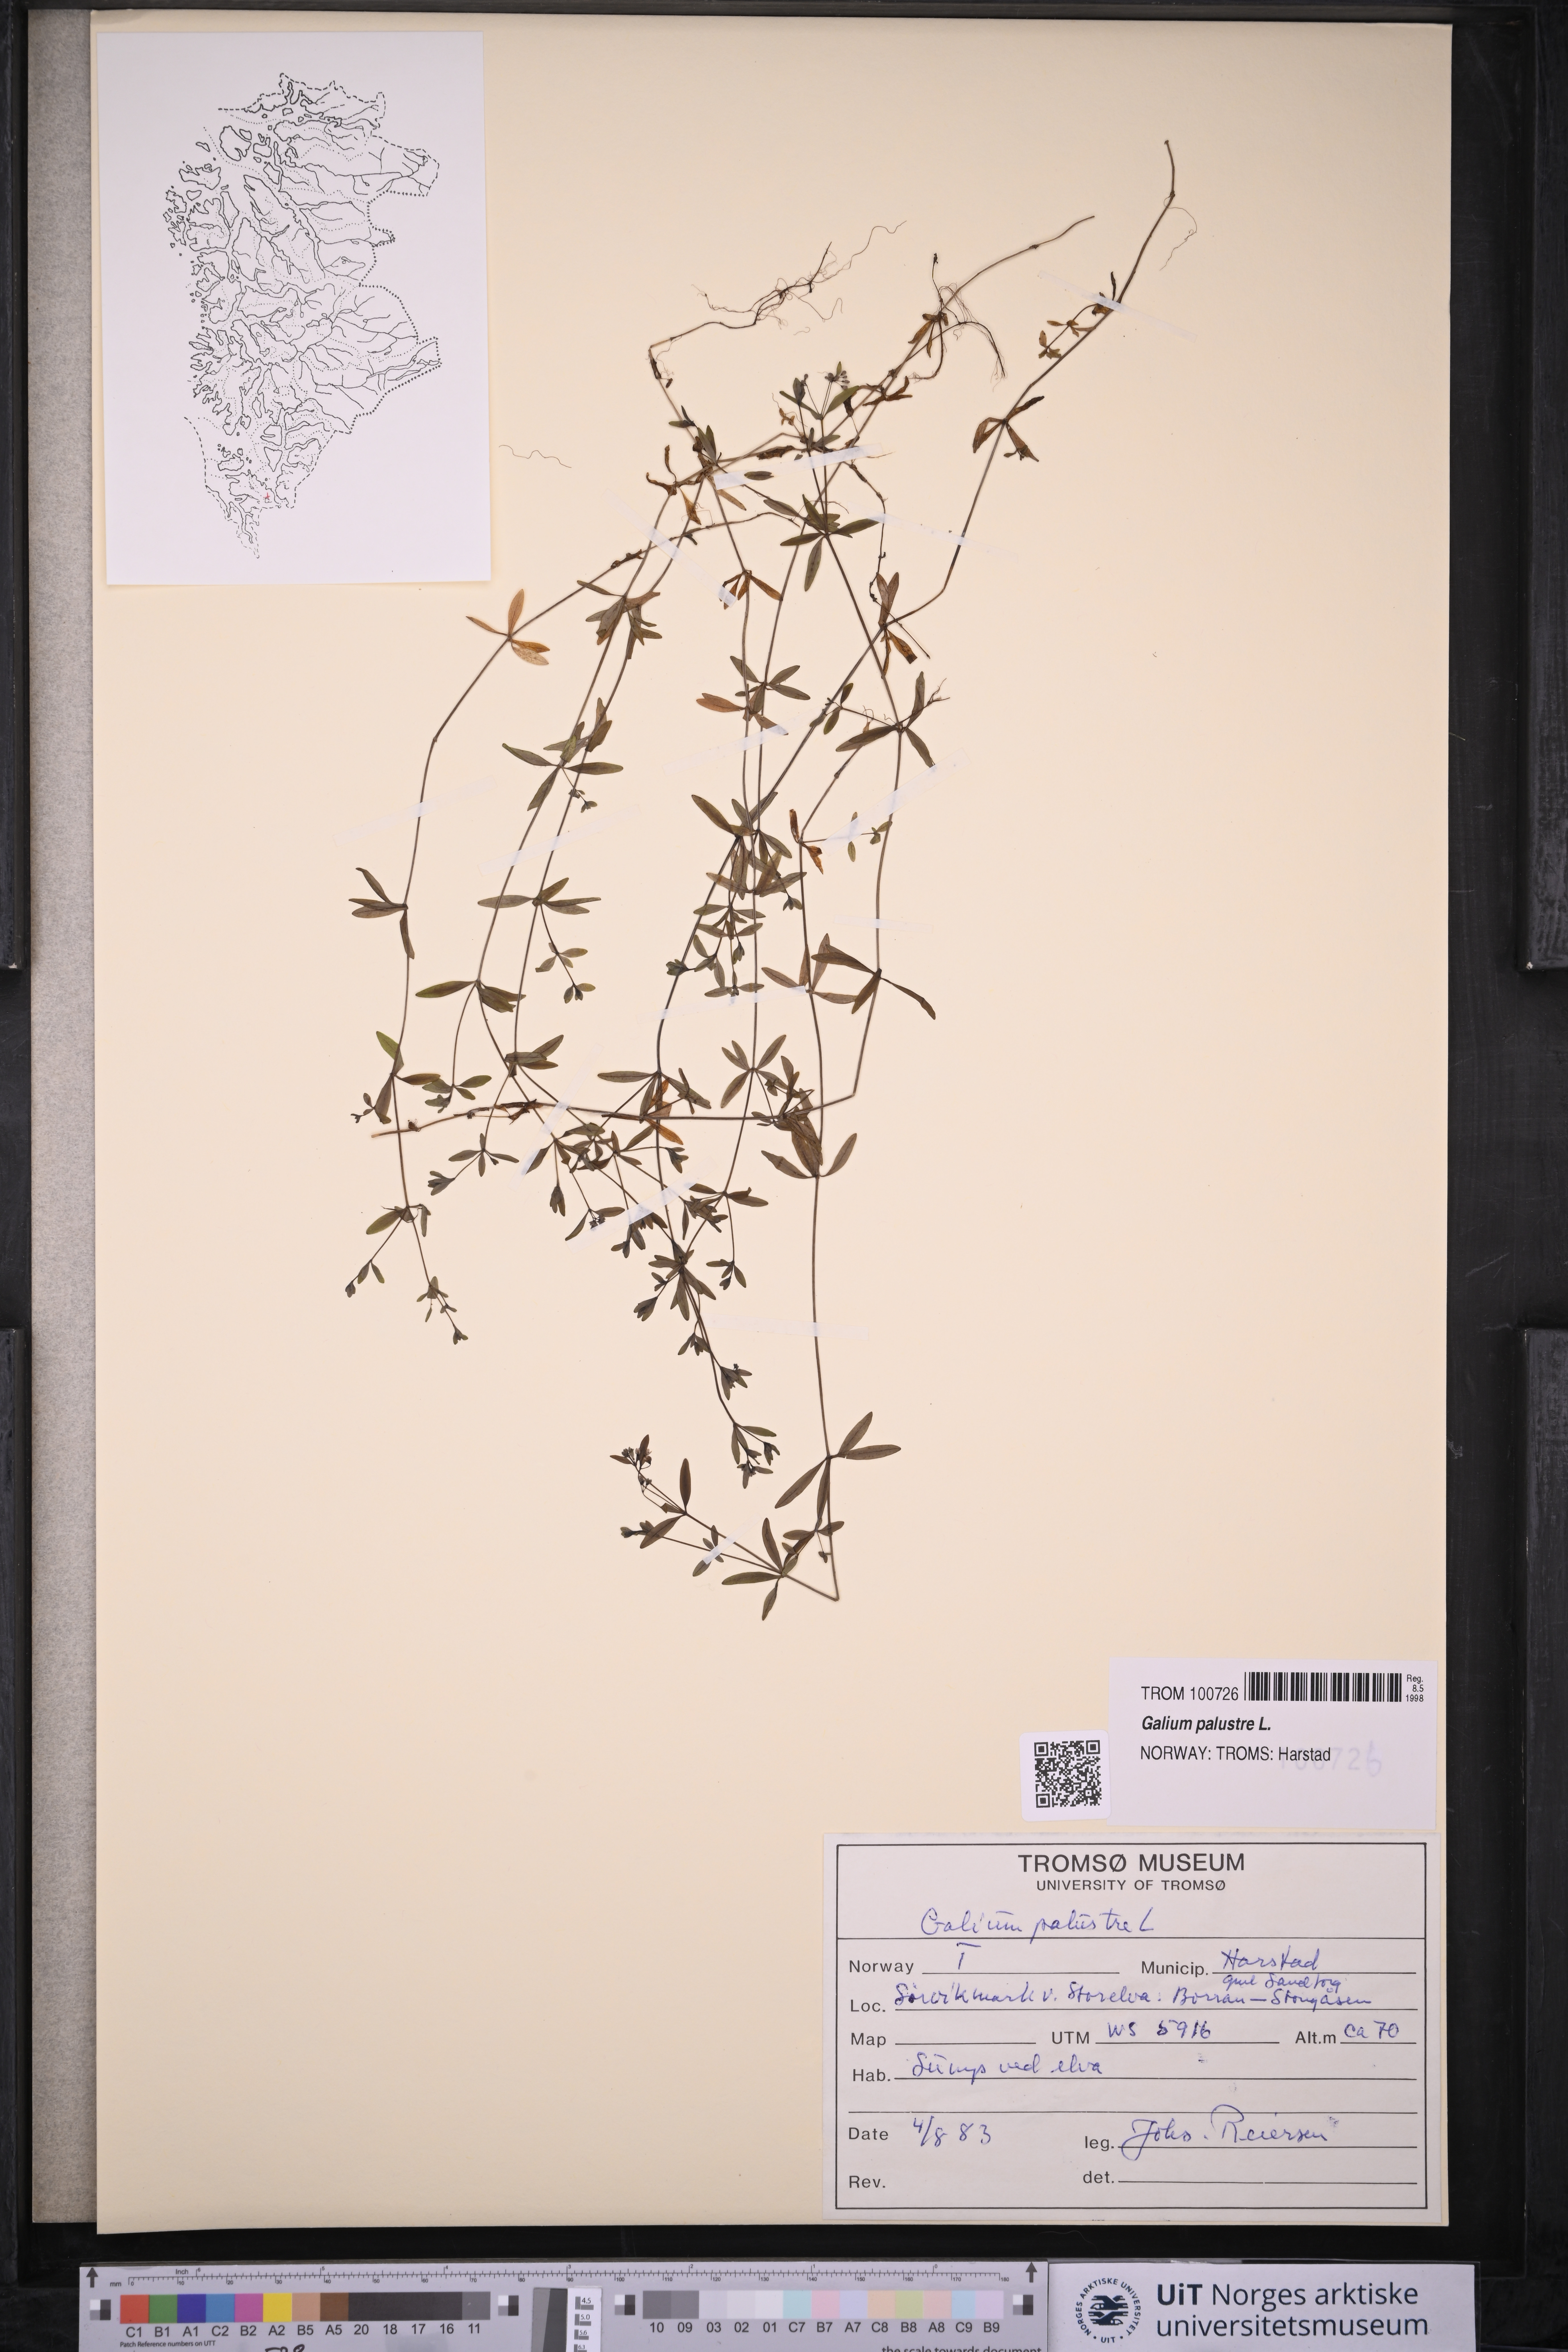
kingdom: Plantae
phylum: Tracheophyta
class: Magnoliopsida
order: Gentianales
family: Rubiaceae
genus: Galium
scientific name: Galium palustre
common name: Common marsh-bedstraw
